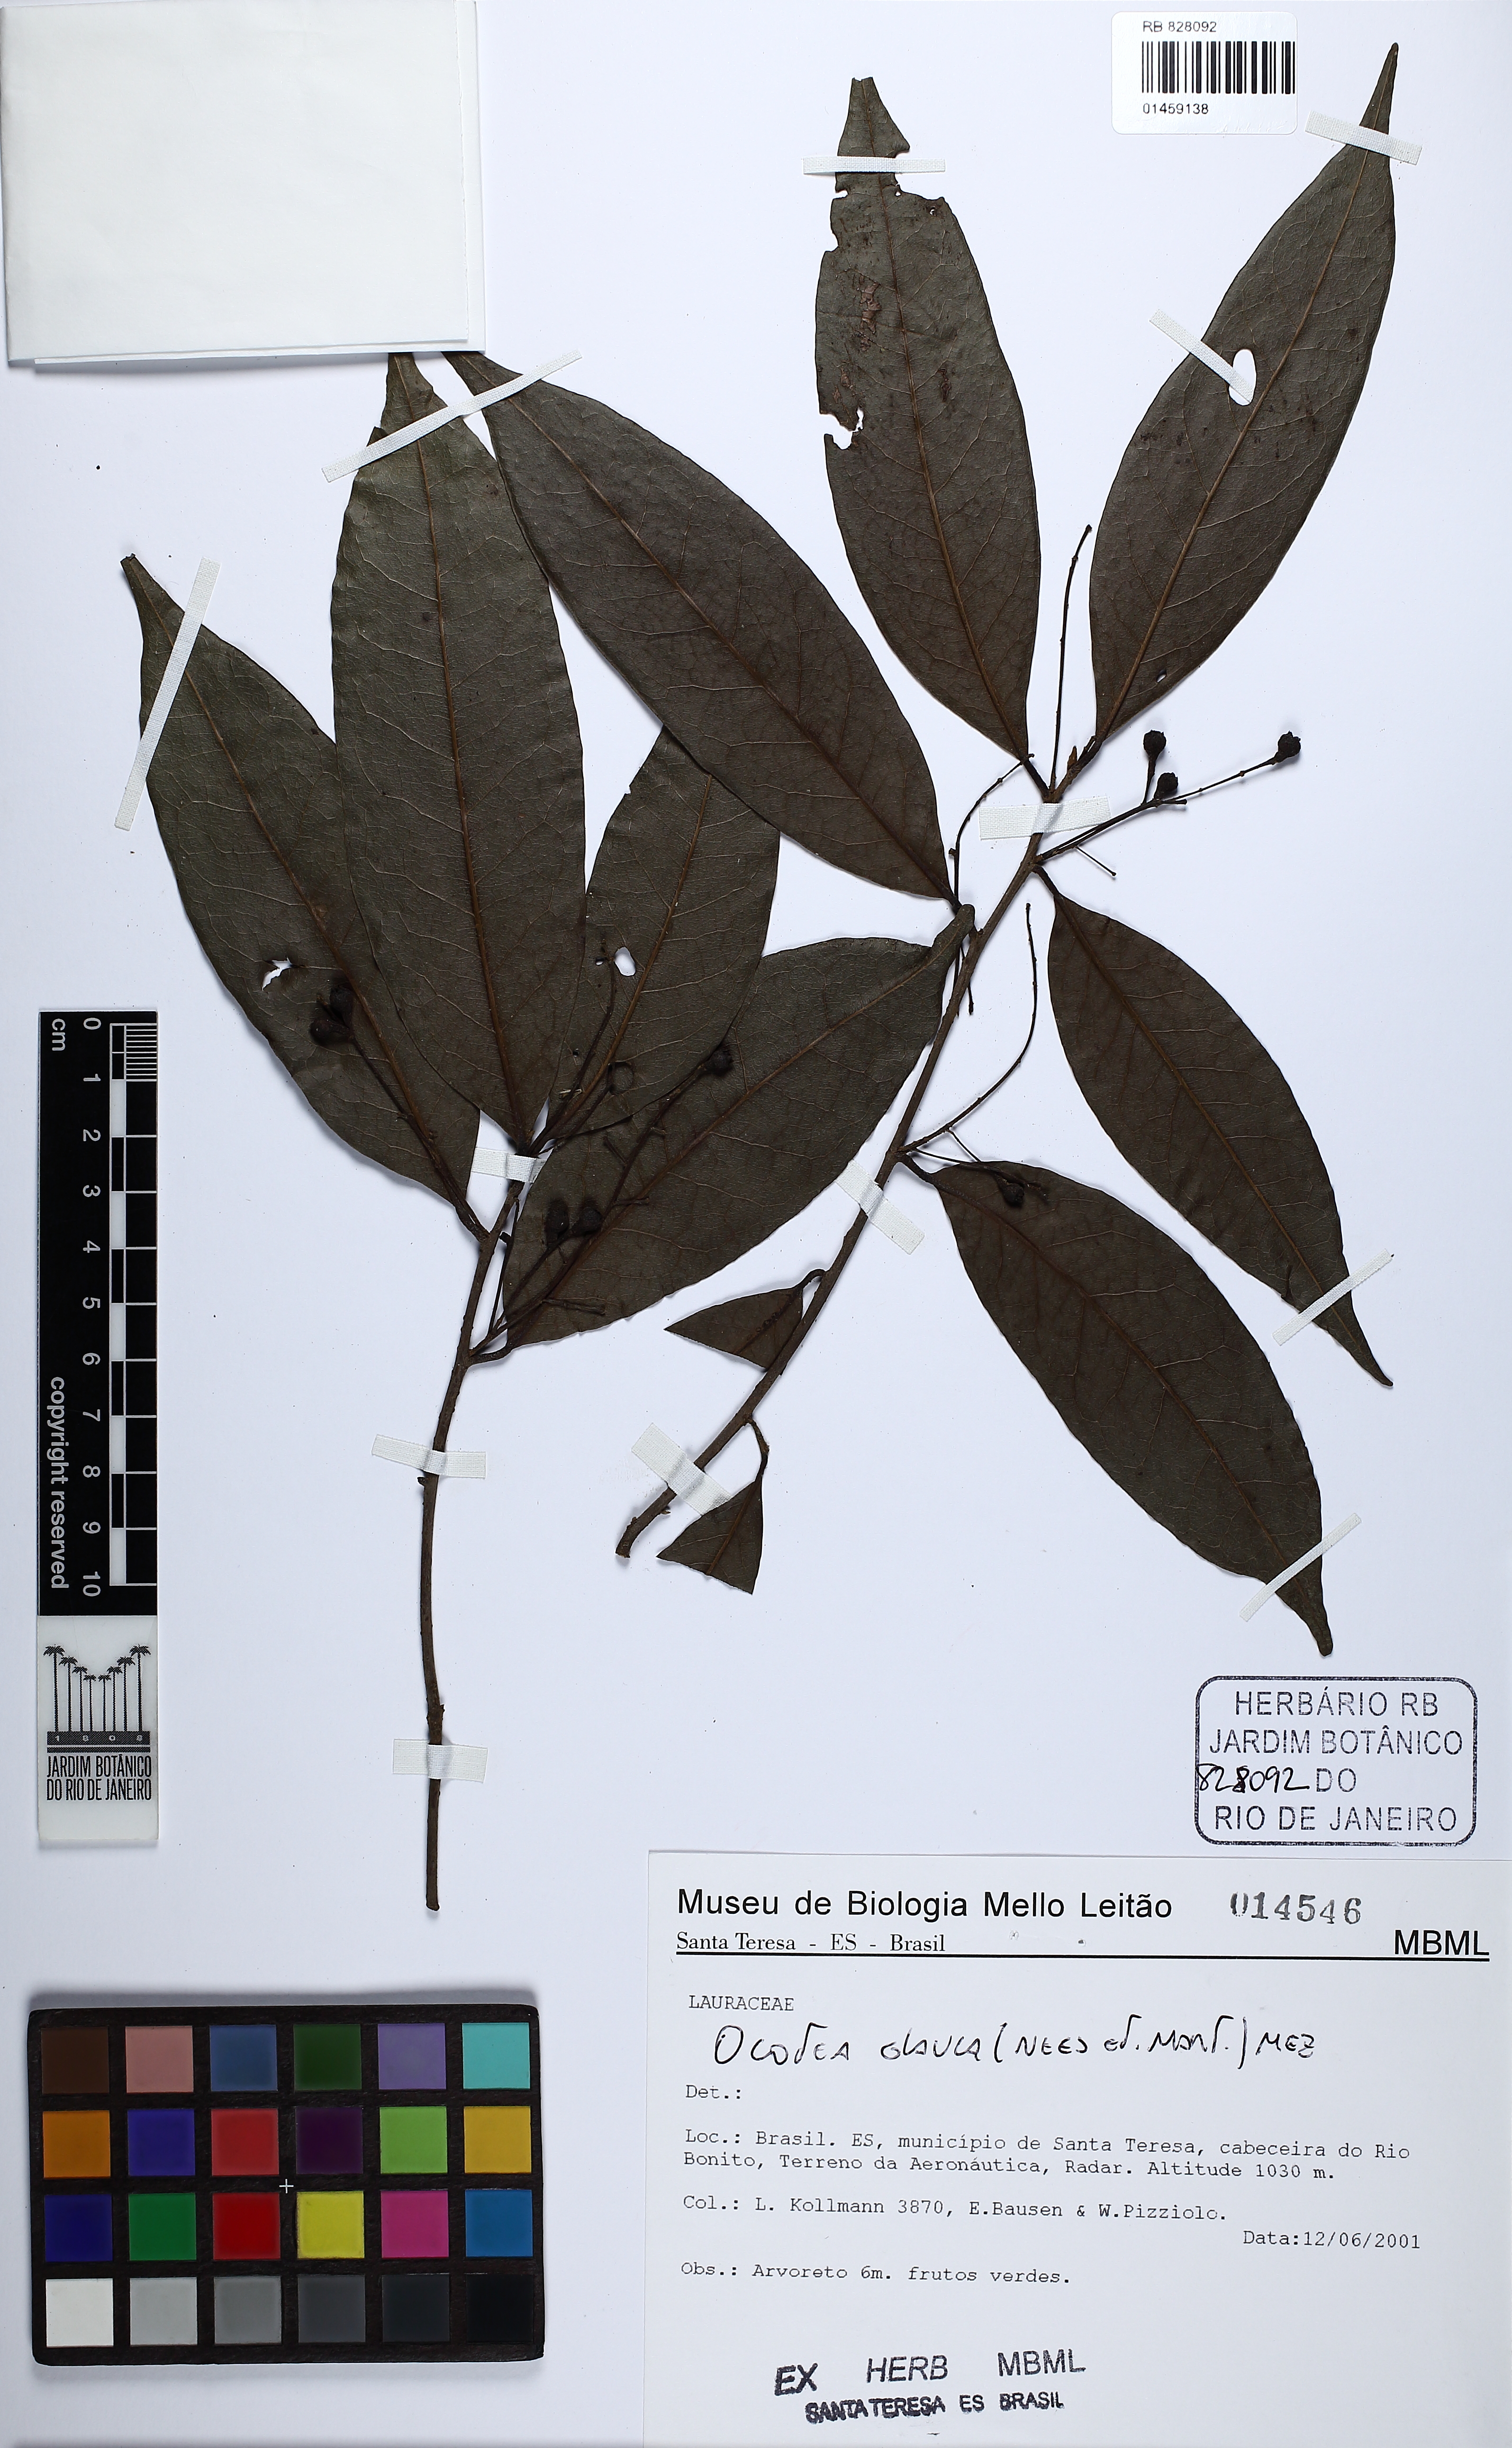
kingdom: Plantae
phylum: Tracheophyta
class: Magnoliopsida
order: Laurales
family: Lauraceae
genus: Mespilodaphne
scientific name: Mespilodaphne glauca
